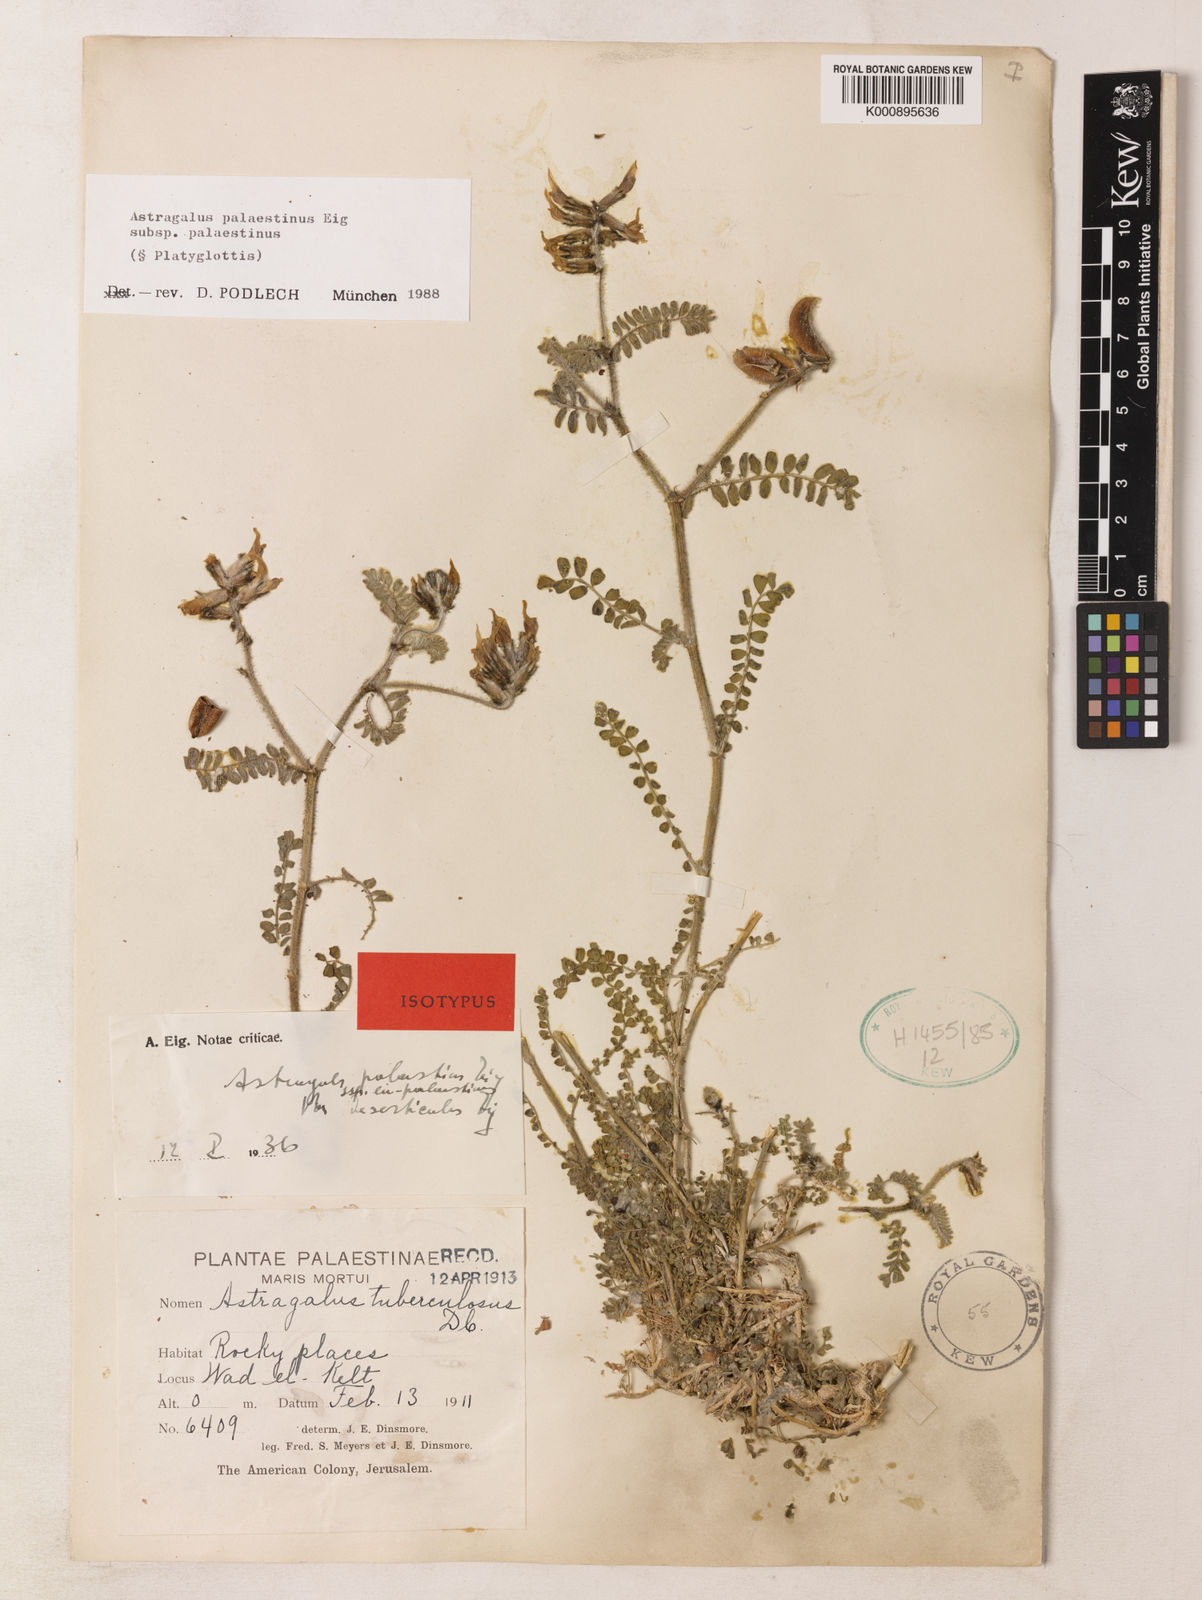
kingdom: Plantae
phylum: Tracheophyta
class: Magnoliopsida
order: Fabales
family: Fabaceae
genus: Astragalus
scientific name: Astragalus palaestinus
